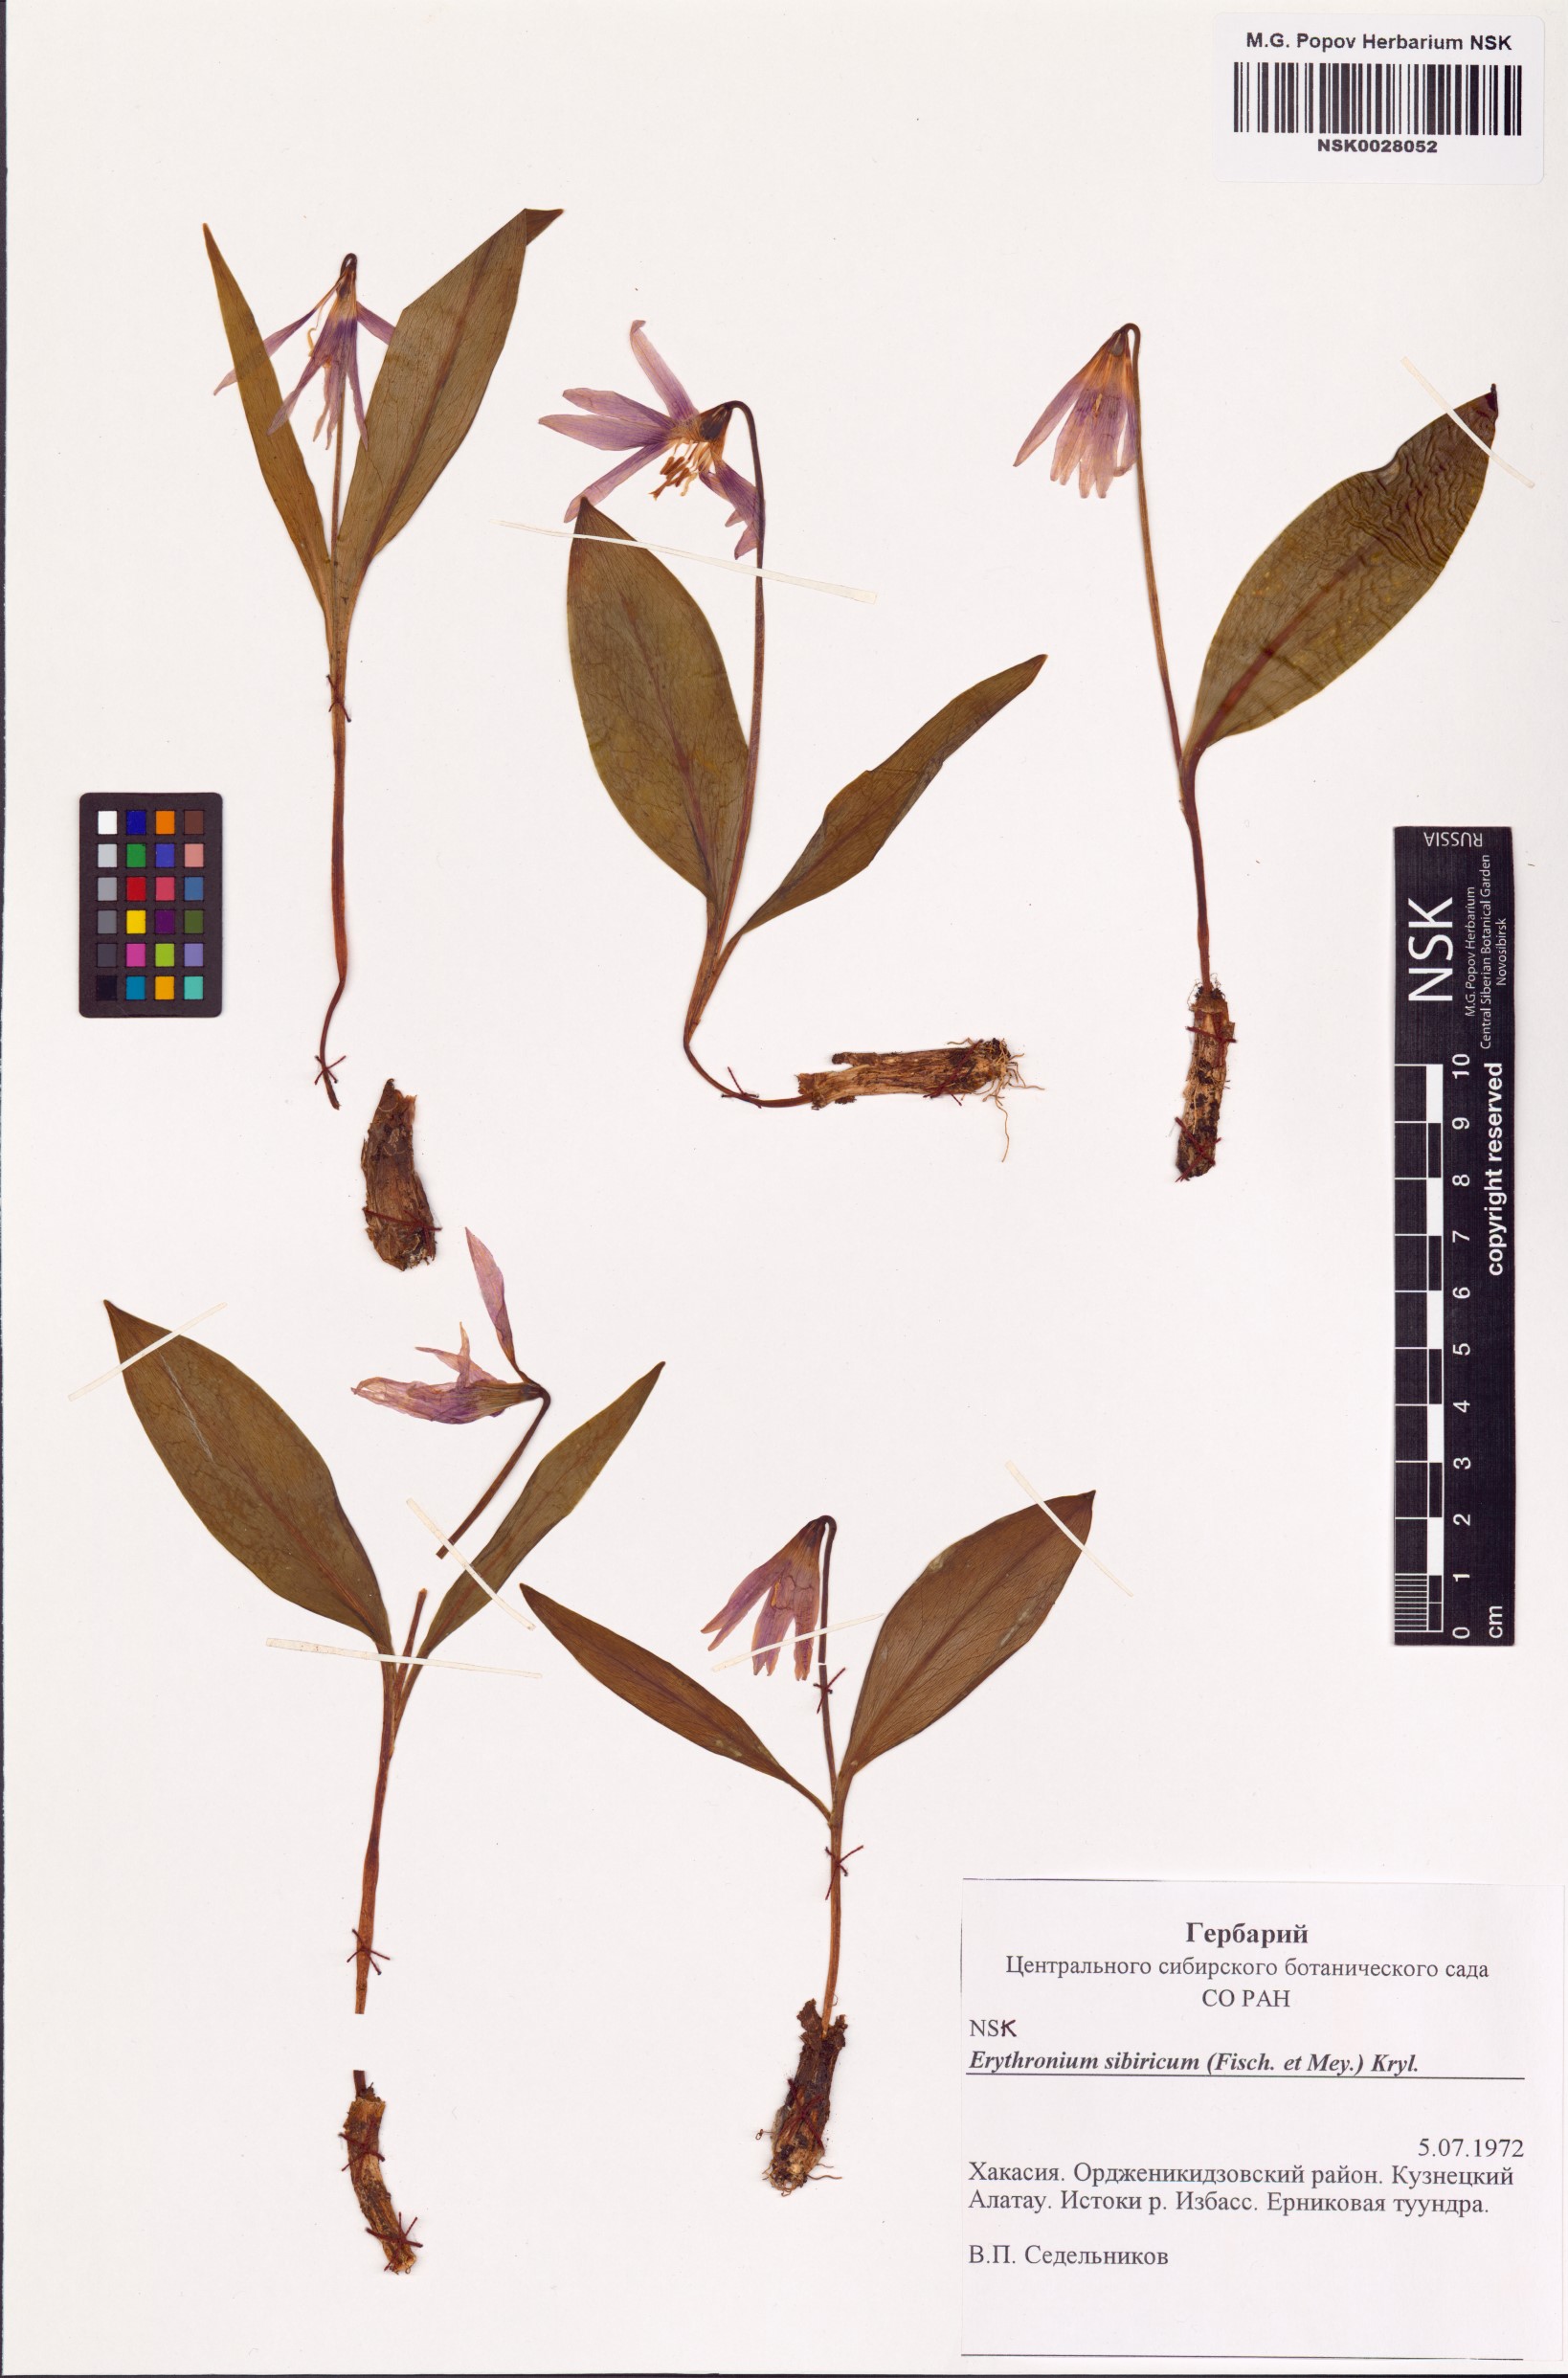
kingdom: Plantae
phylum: Tracheophyta
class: Liliopsida
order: Liliales
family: Liliaceae
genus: Erythronium
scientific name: Erythronium sibiricum
